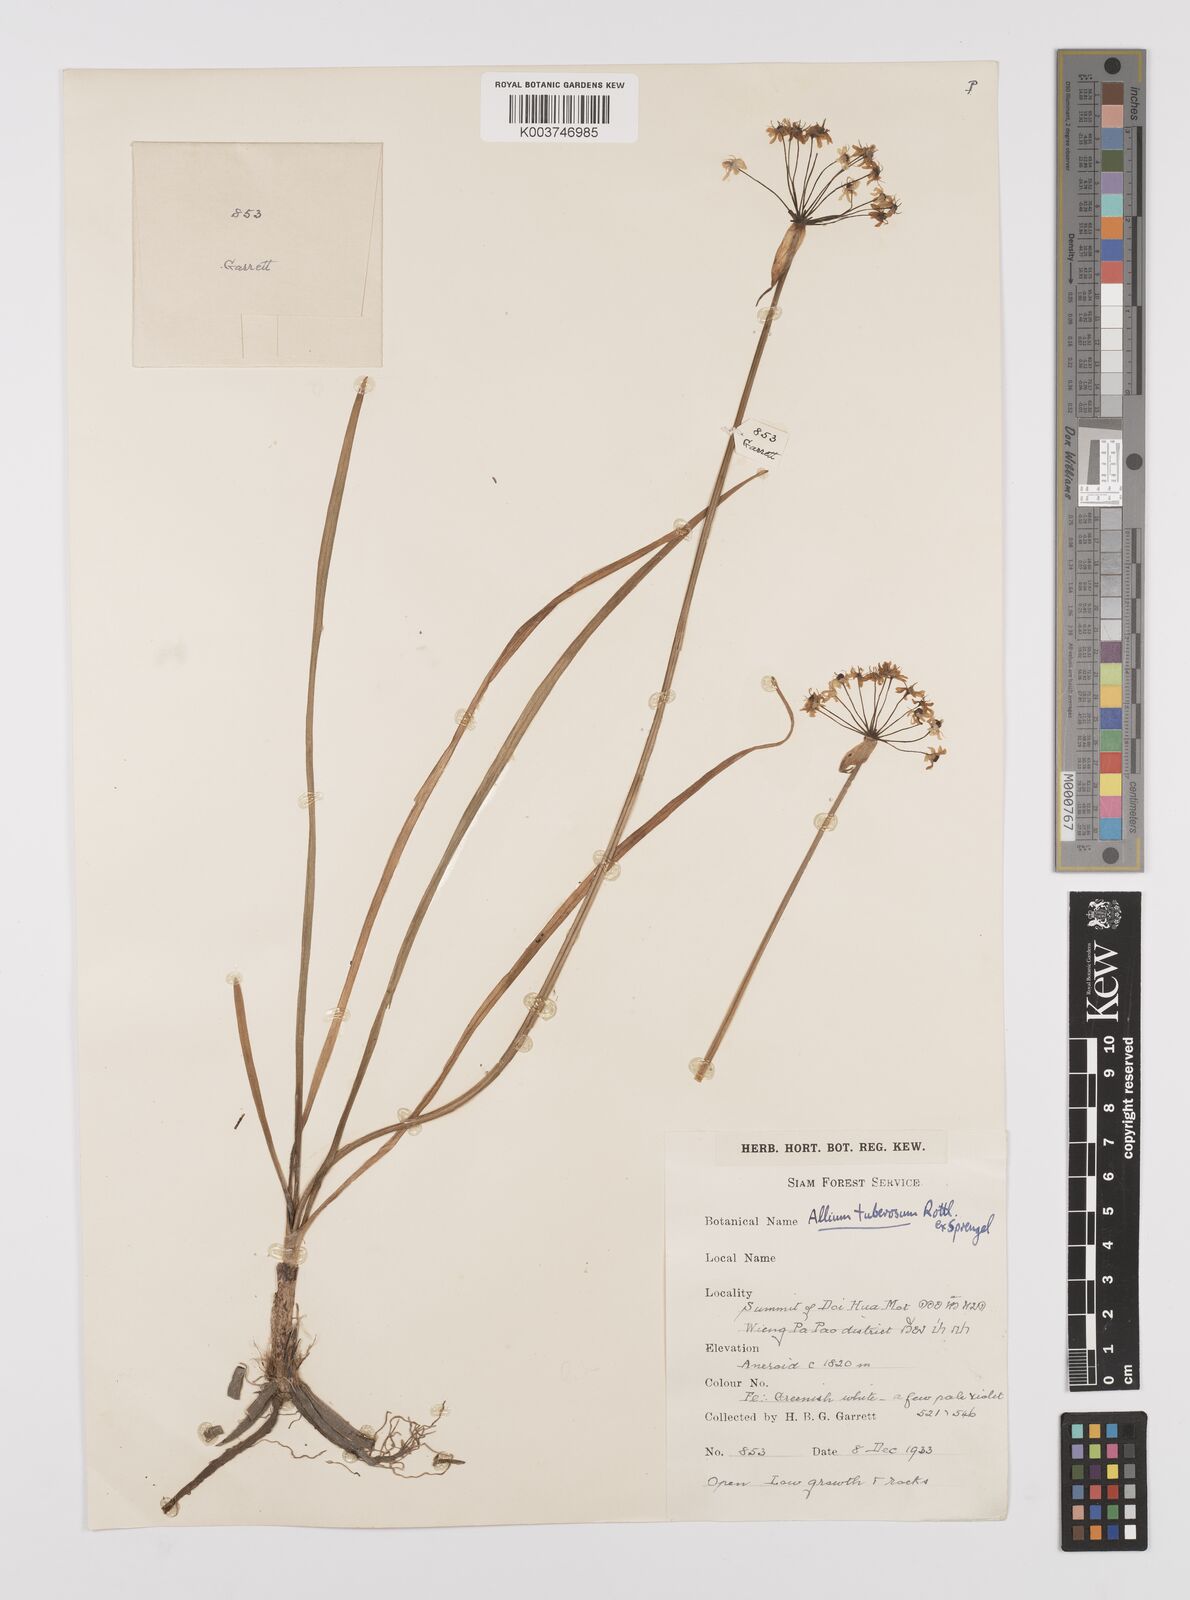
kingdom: Plantae
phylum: Tracheophyta
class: Liliopsida
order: Asparagales
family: Amaryllidaceae
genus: Allium
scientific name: Allium tuberosum
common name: Chinese chives
